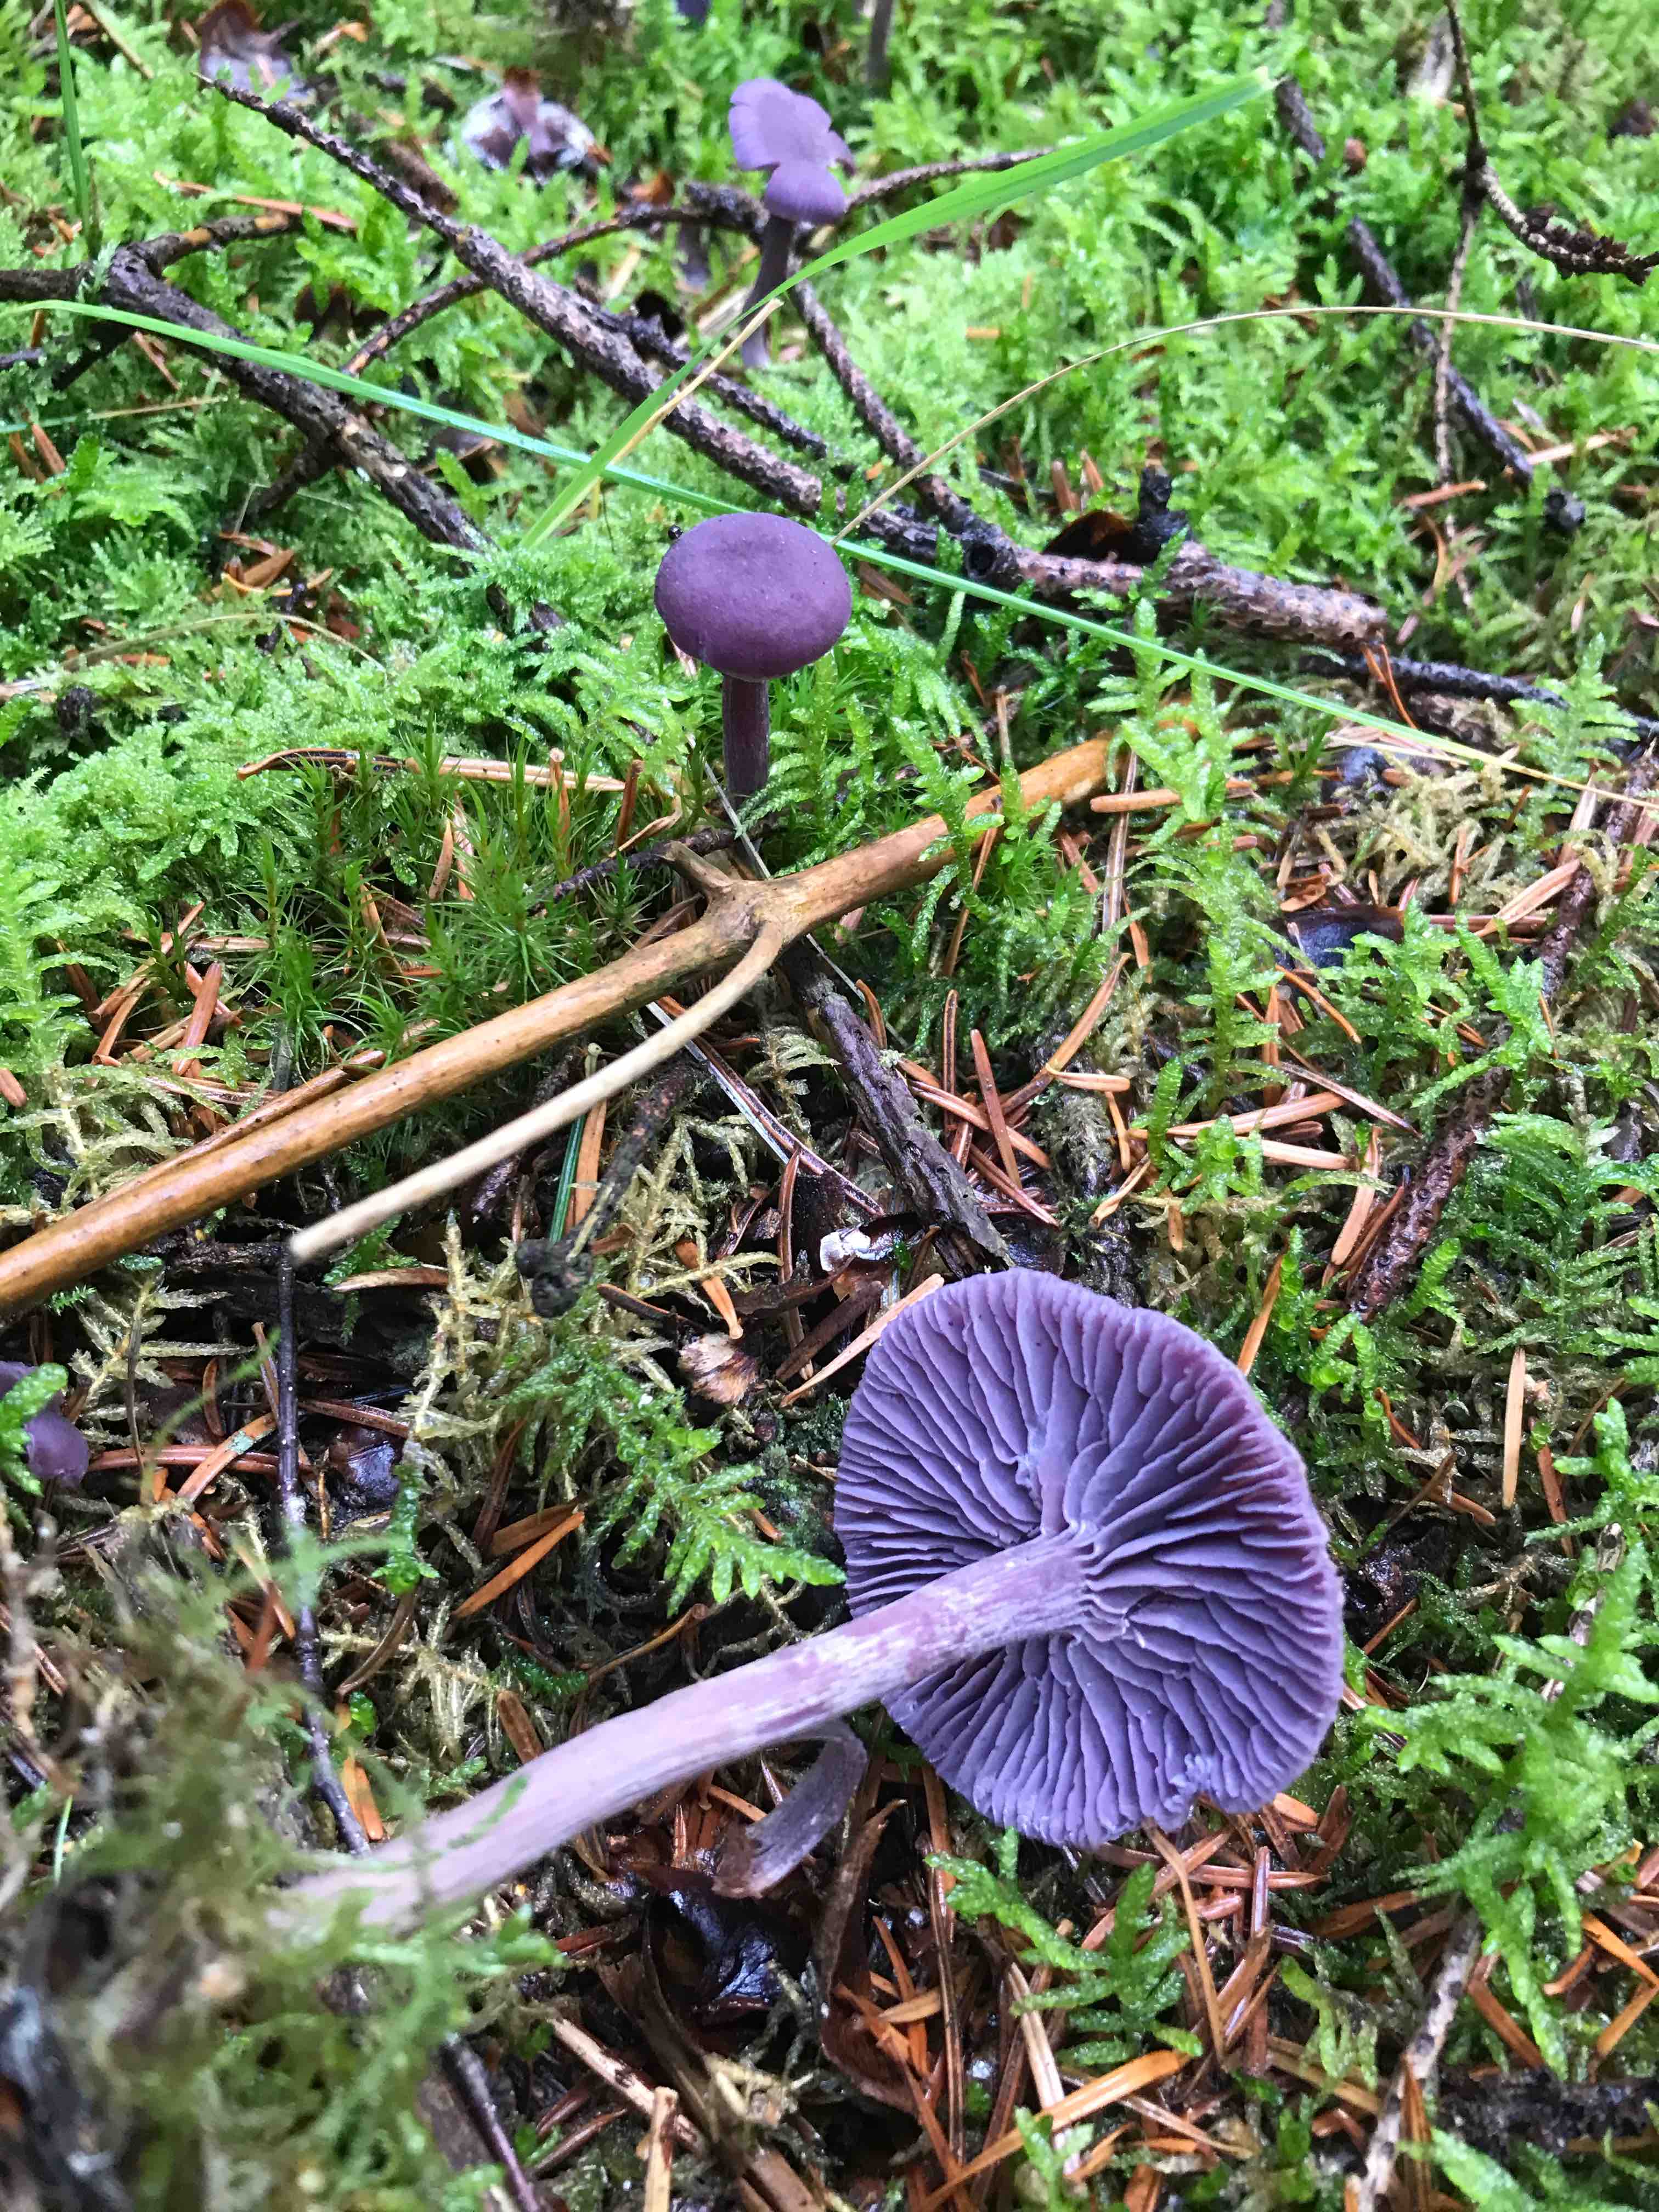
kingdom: Fungi
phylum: Basidiomycota
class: Agaricomycetes
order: Agaricales
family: Hydnangiaceae
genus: Laccaria
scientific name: Laccaria amethystina
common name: violet ametysthat
